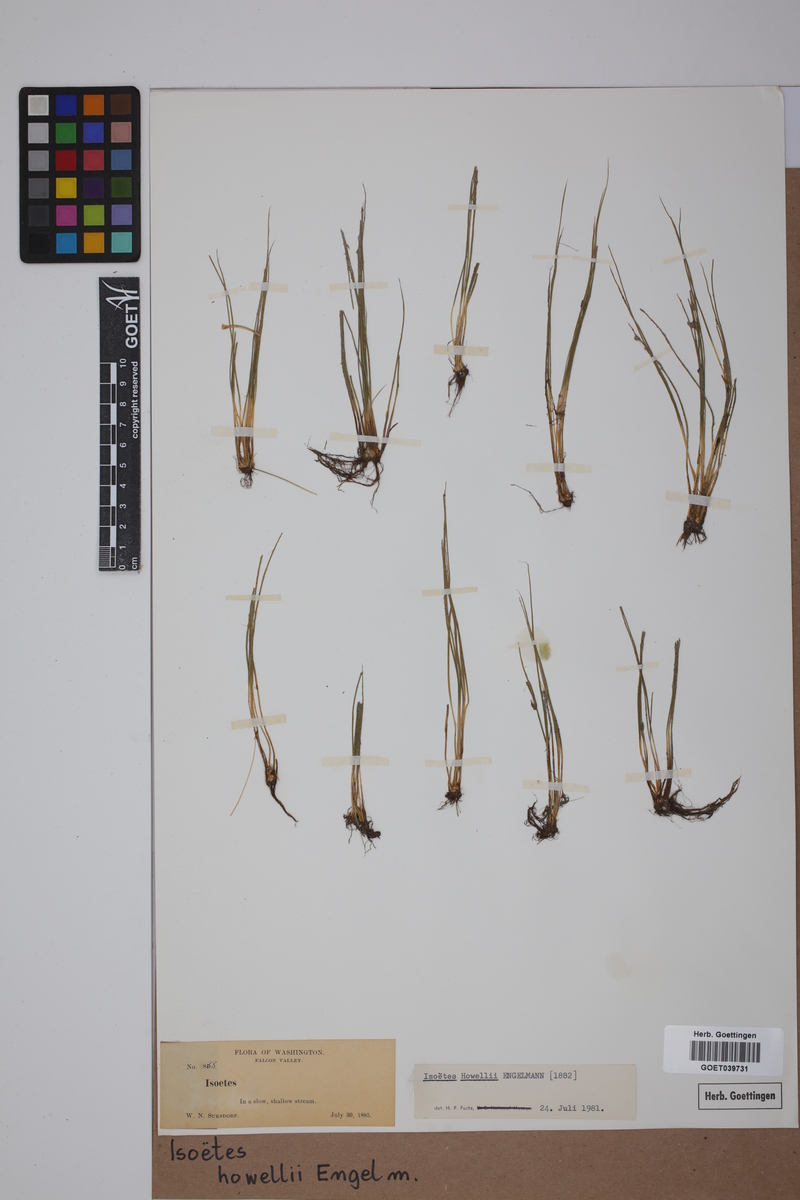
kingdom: Plantae
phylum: Tracheophyta
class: Lycopodiopsida
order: Isoetales
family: Isoetaceae
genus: Isoetes
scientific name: Isoetes howellii
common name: Howell's quillwort
